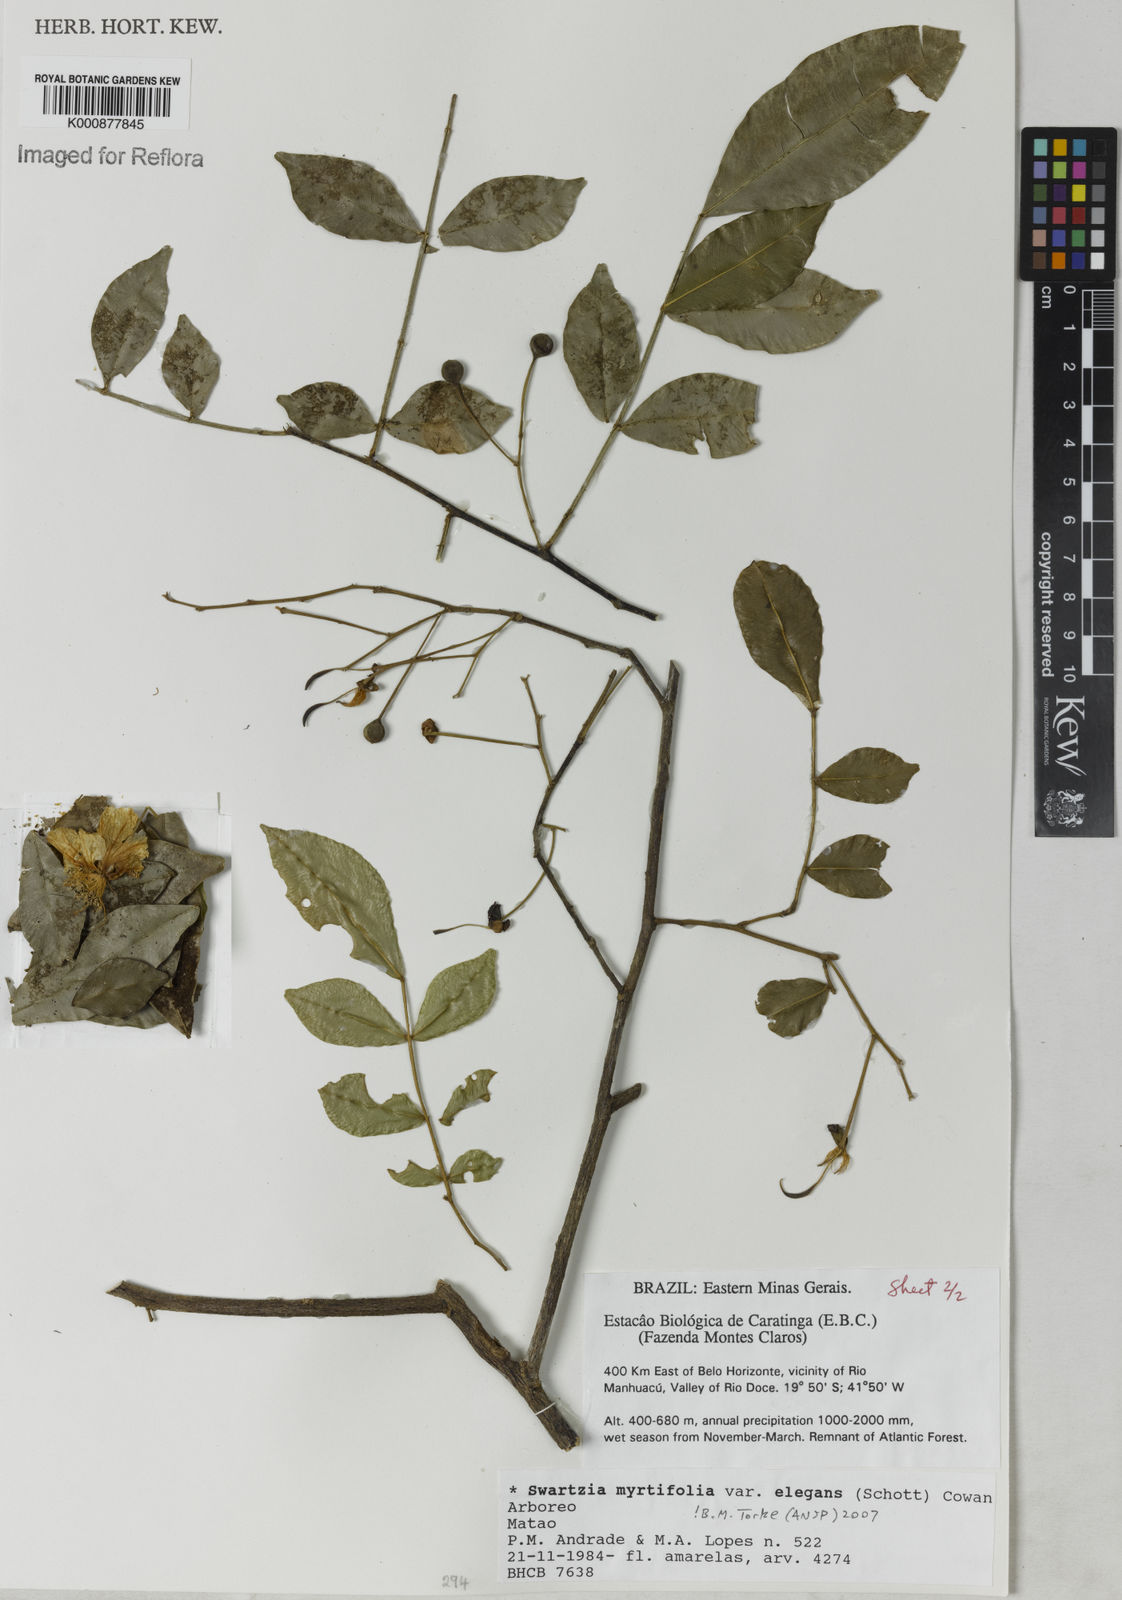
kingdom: Plantae
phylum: Tracheophyta
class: Magnoliopsida
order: Fabales
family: Fabaceae
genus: Swartzia
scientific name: Swartzia myrtifolia
